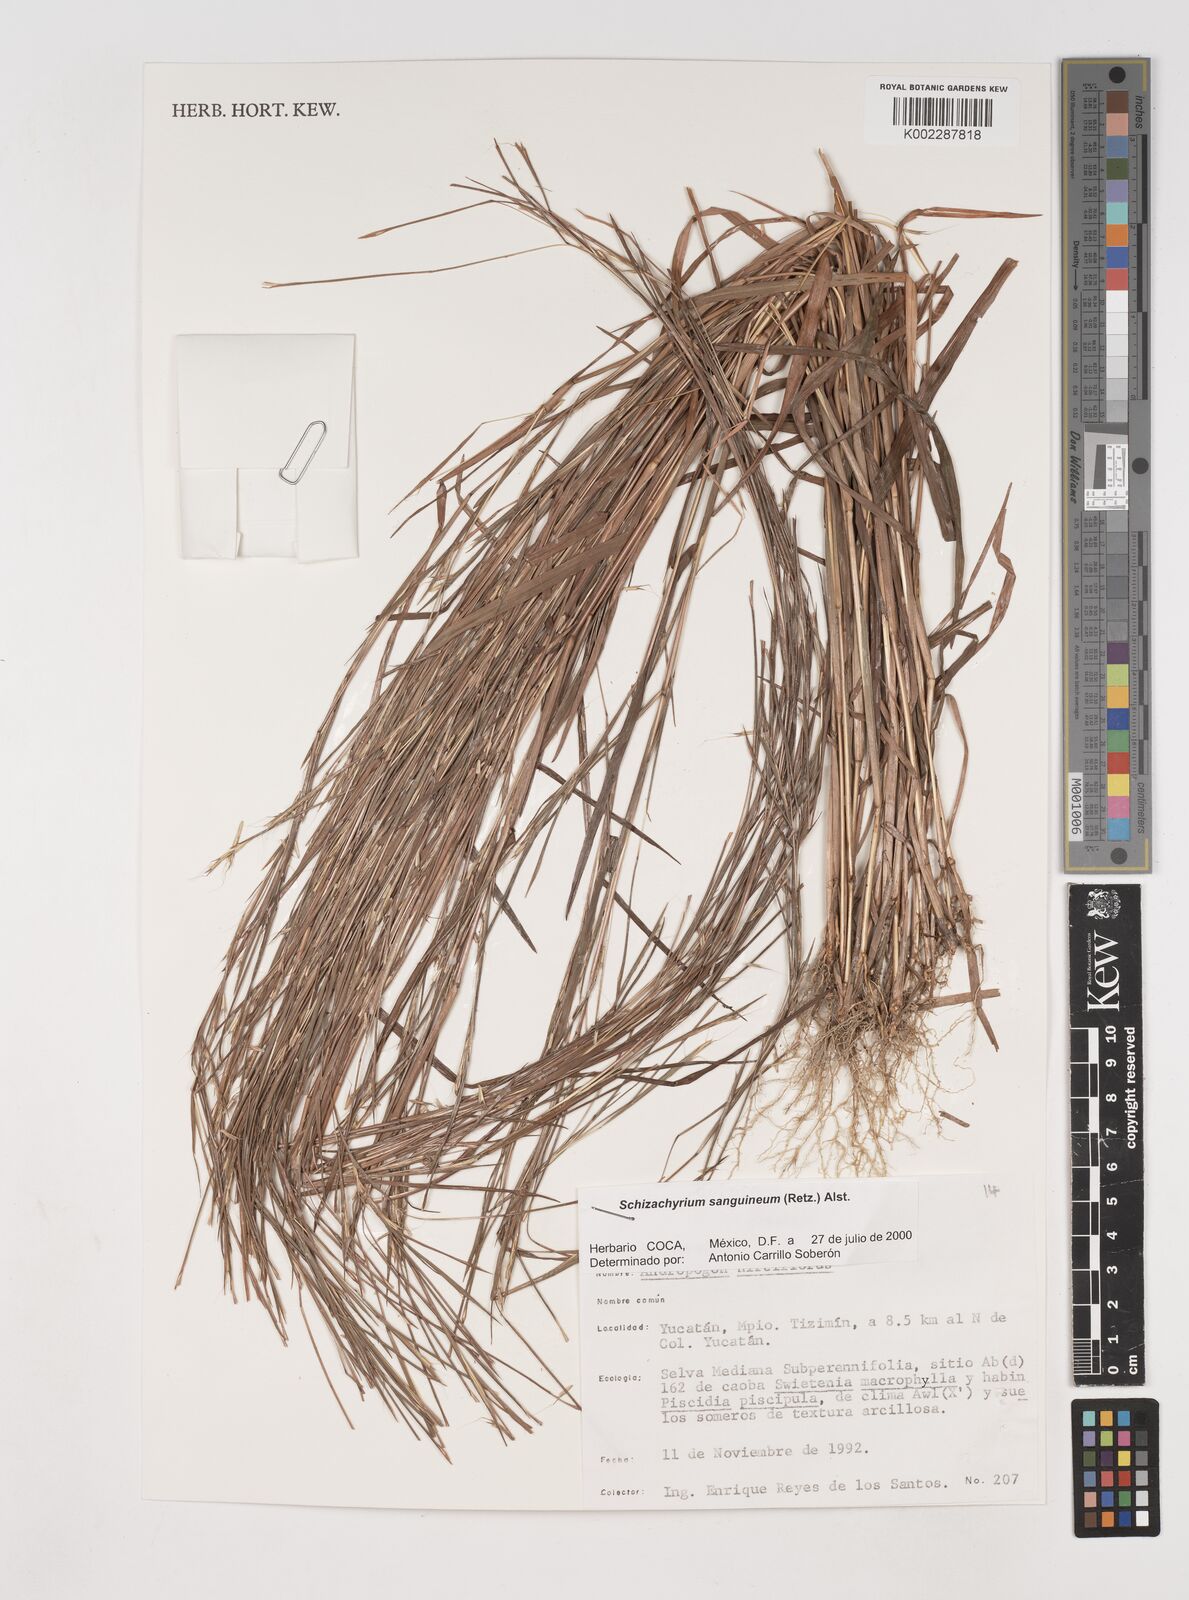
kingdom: Plantae
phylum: Tracheophyta
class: Liliopsida
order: Poales
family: Poaceae
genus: Schizachyrium
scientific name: Schizachyrium sanguineum
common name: Crimson bluestem
